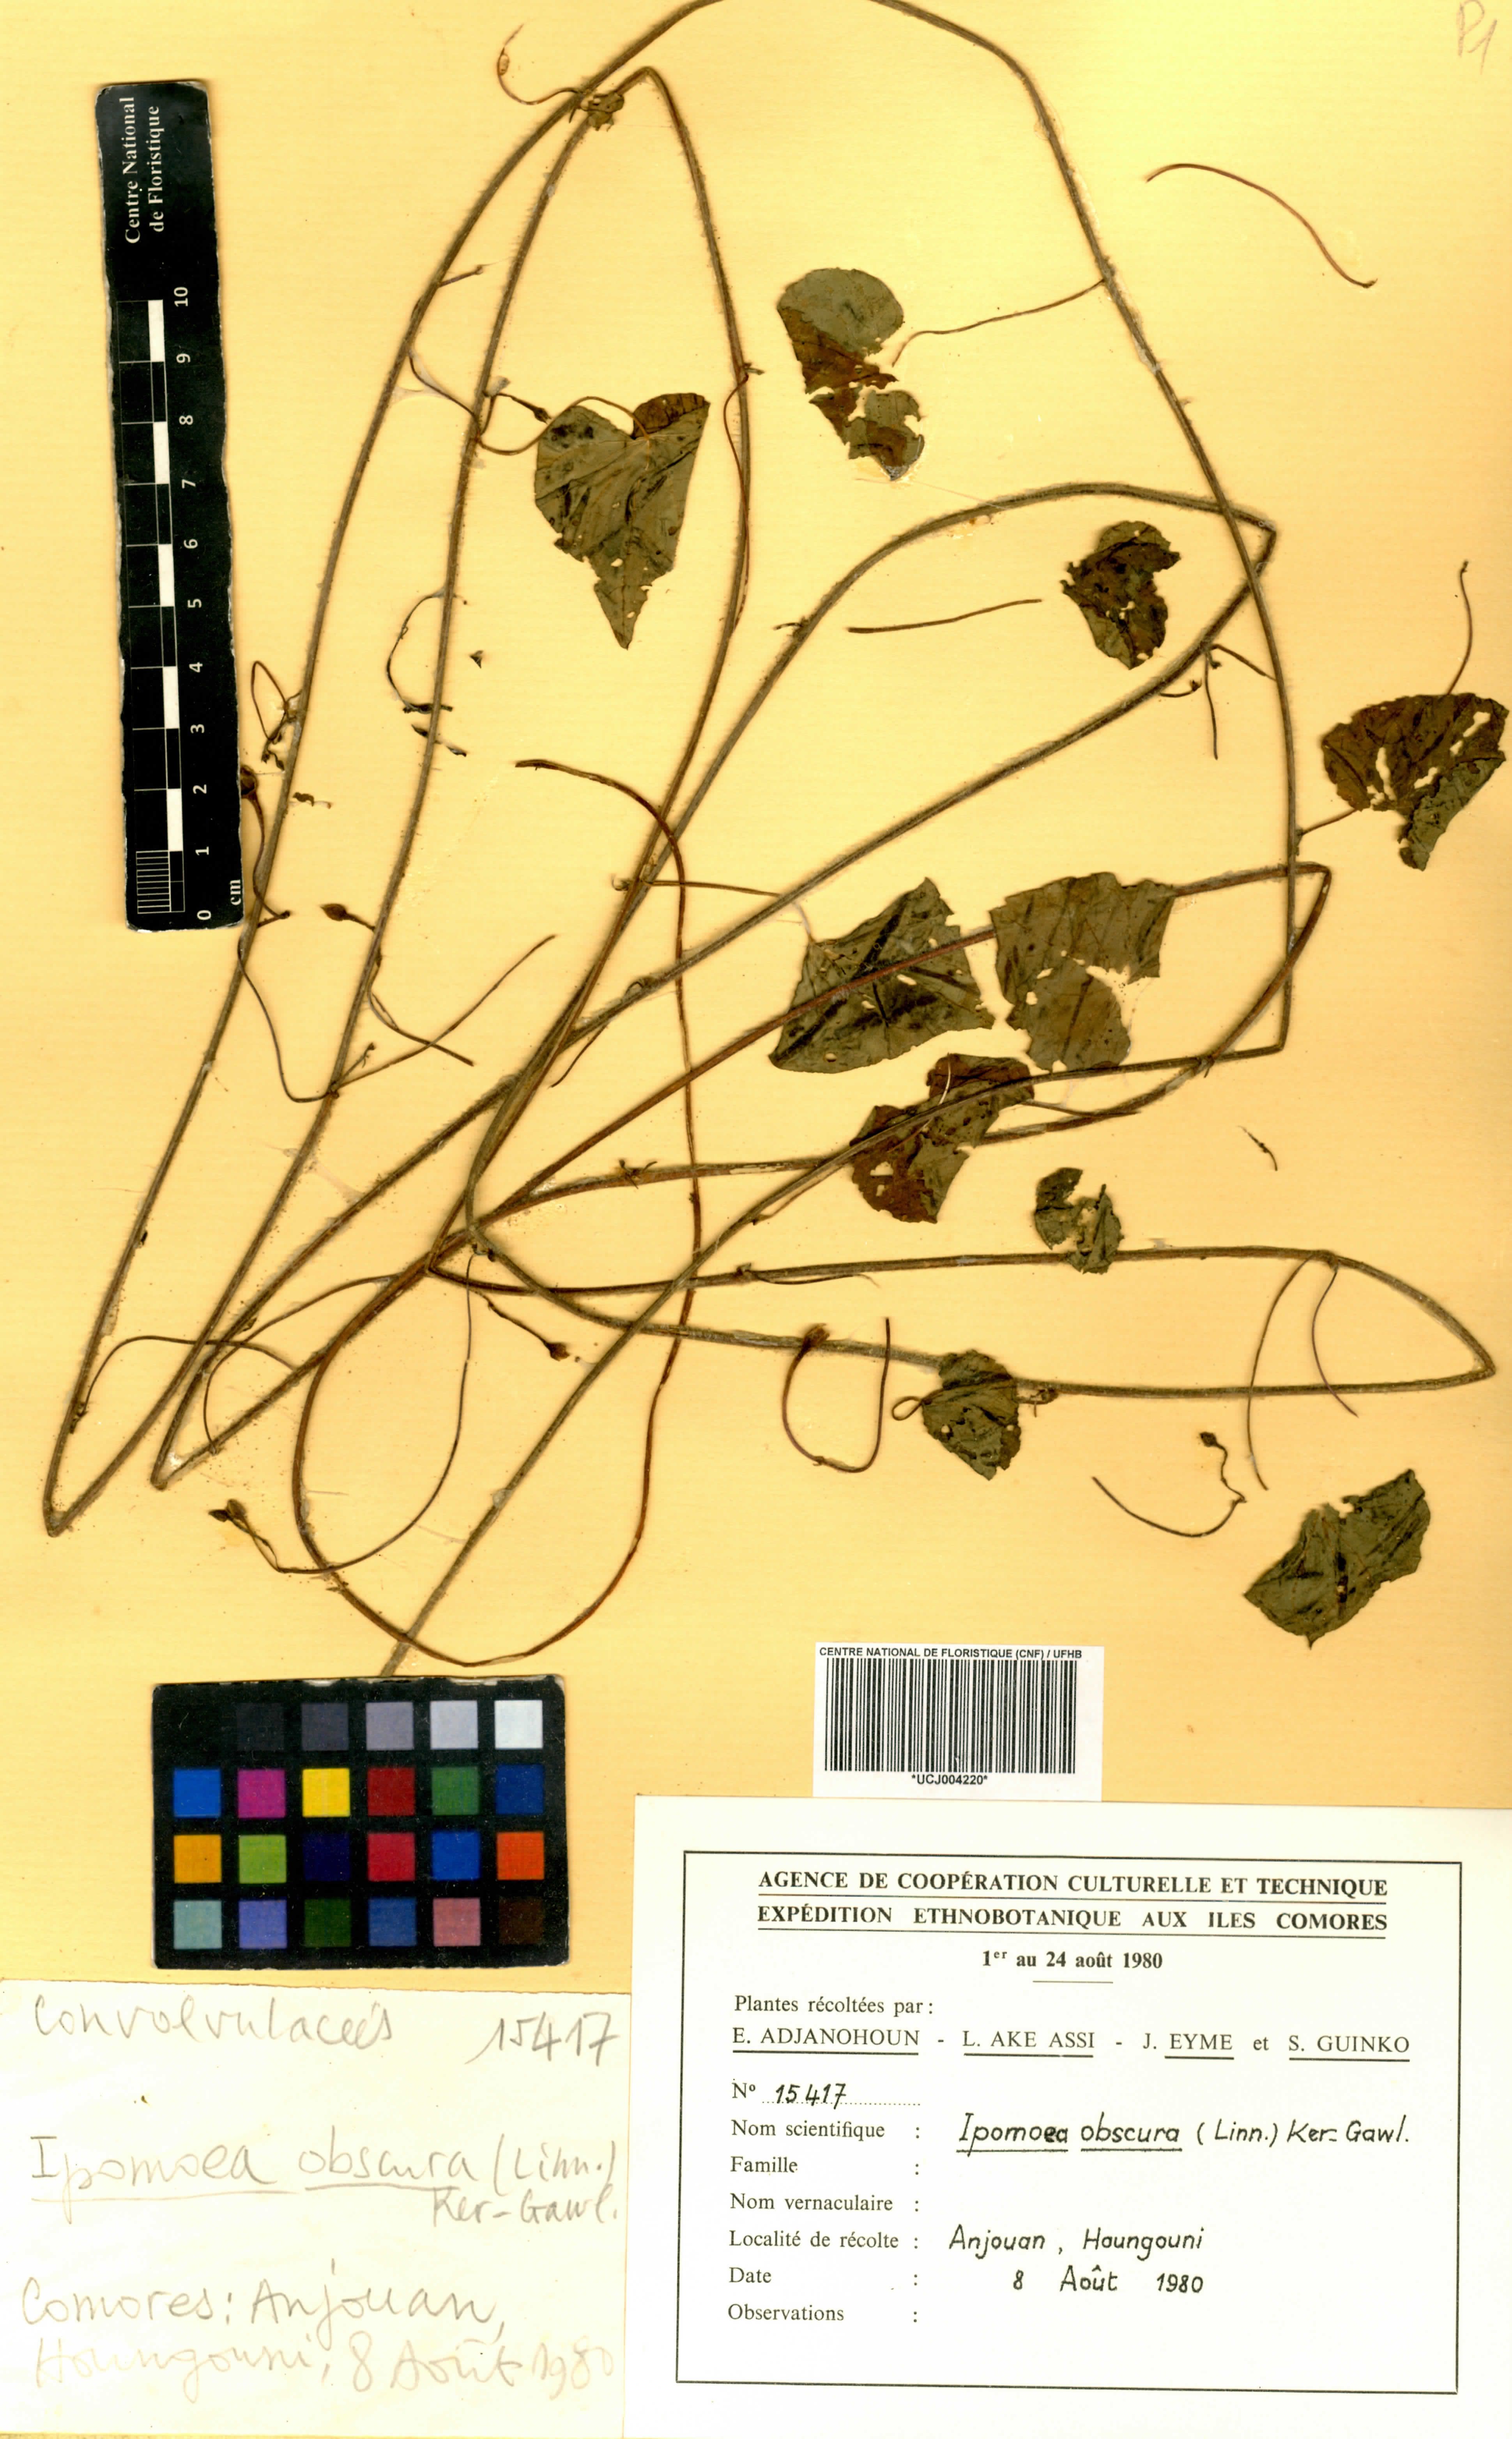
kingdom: Plantae
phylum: Tracheophyta
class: Magnoliopsida
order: Solanales
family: Convolvulaceae
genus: Ipomoea
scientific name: Ipomoea obscura
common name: Obscure morning-glory
